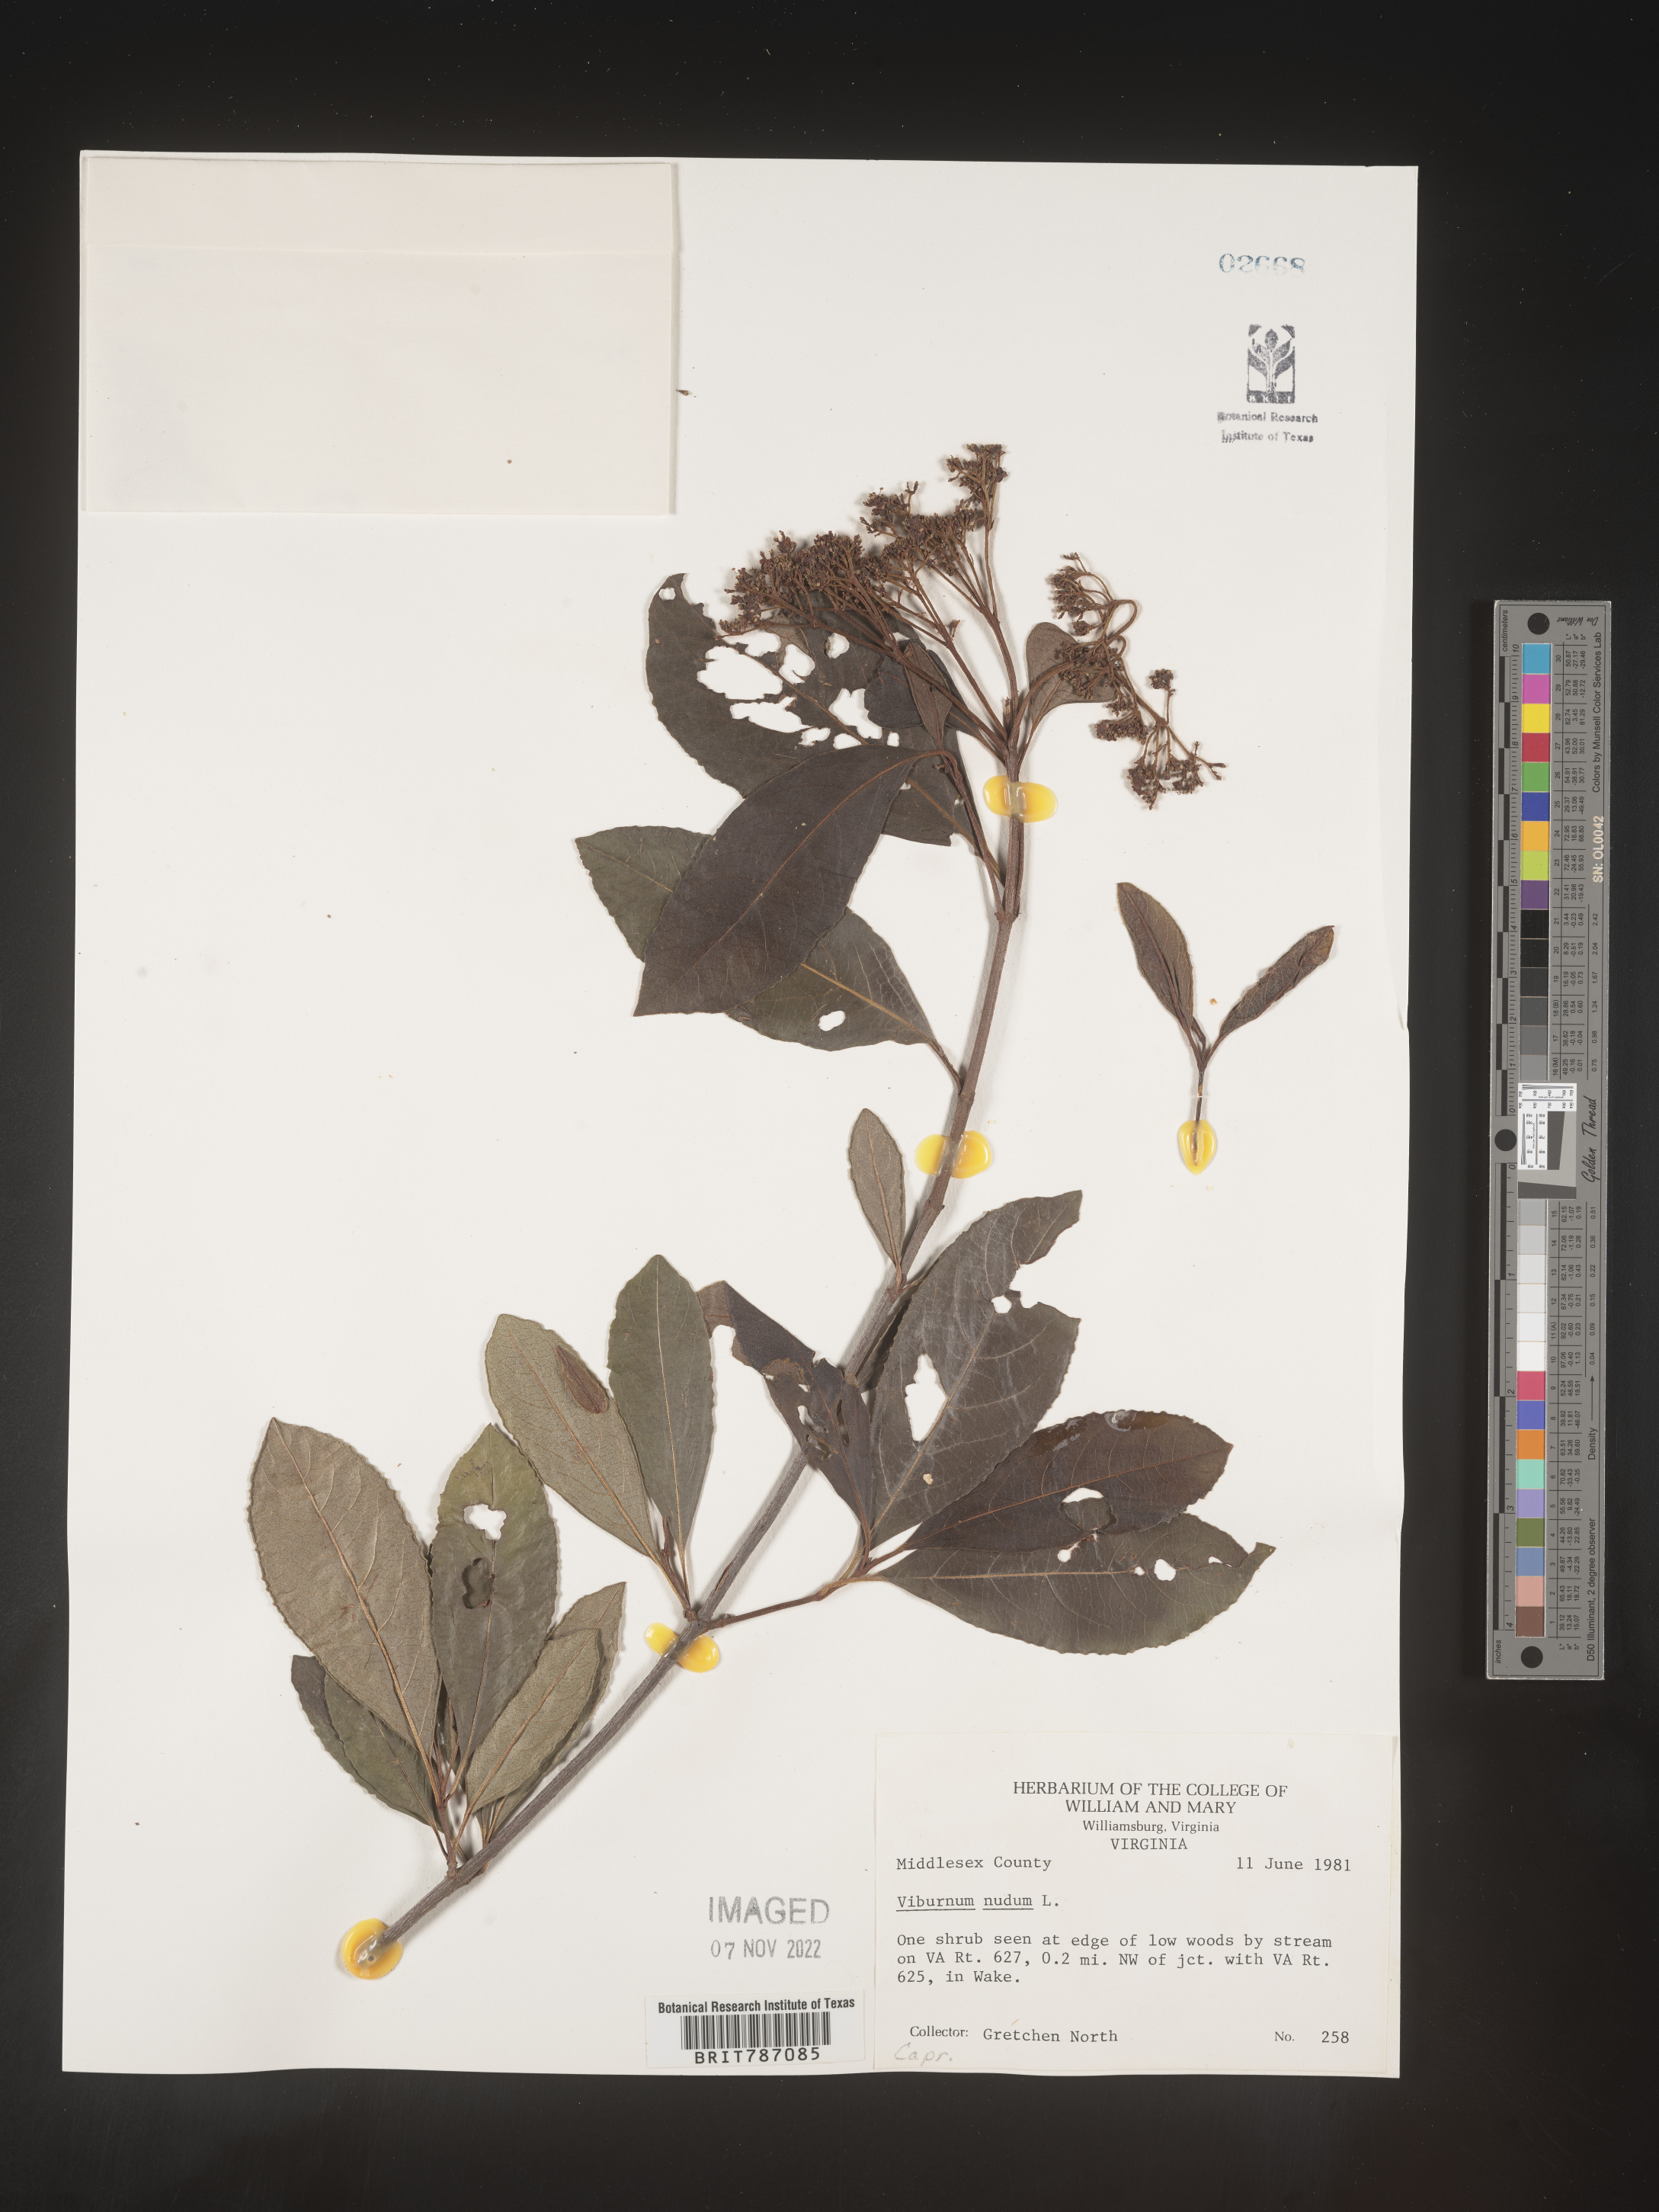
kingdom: Plantae
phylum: Tracheophyta
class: Magnoliopsida
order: Dipsacales
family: Viburnaceae
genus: Viburnum
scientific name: Viburnum nudum
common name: Possum haw
